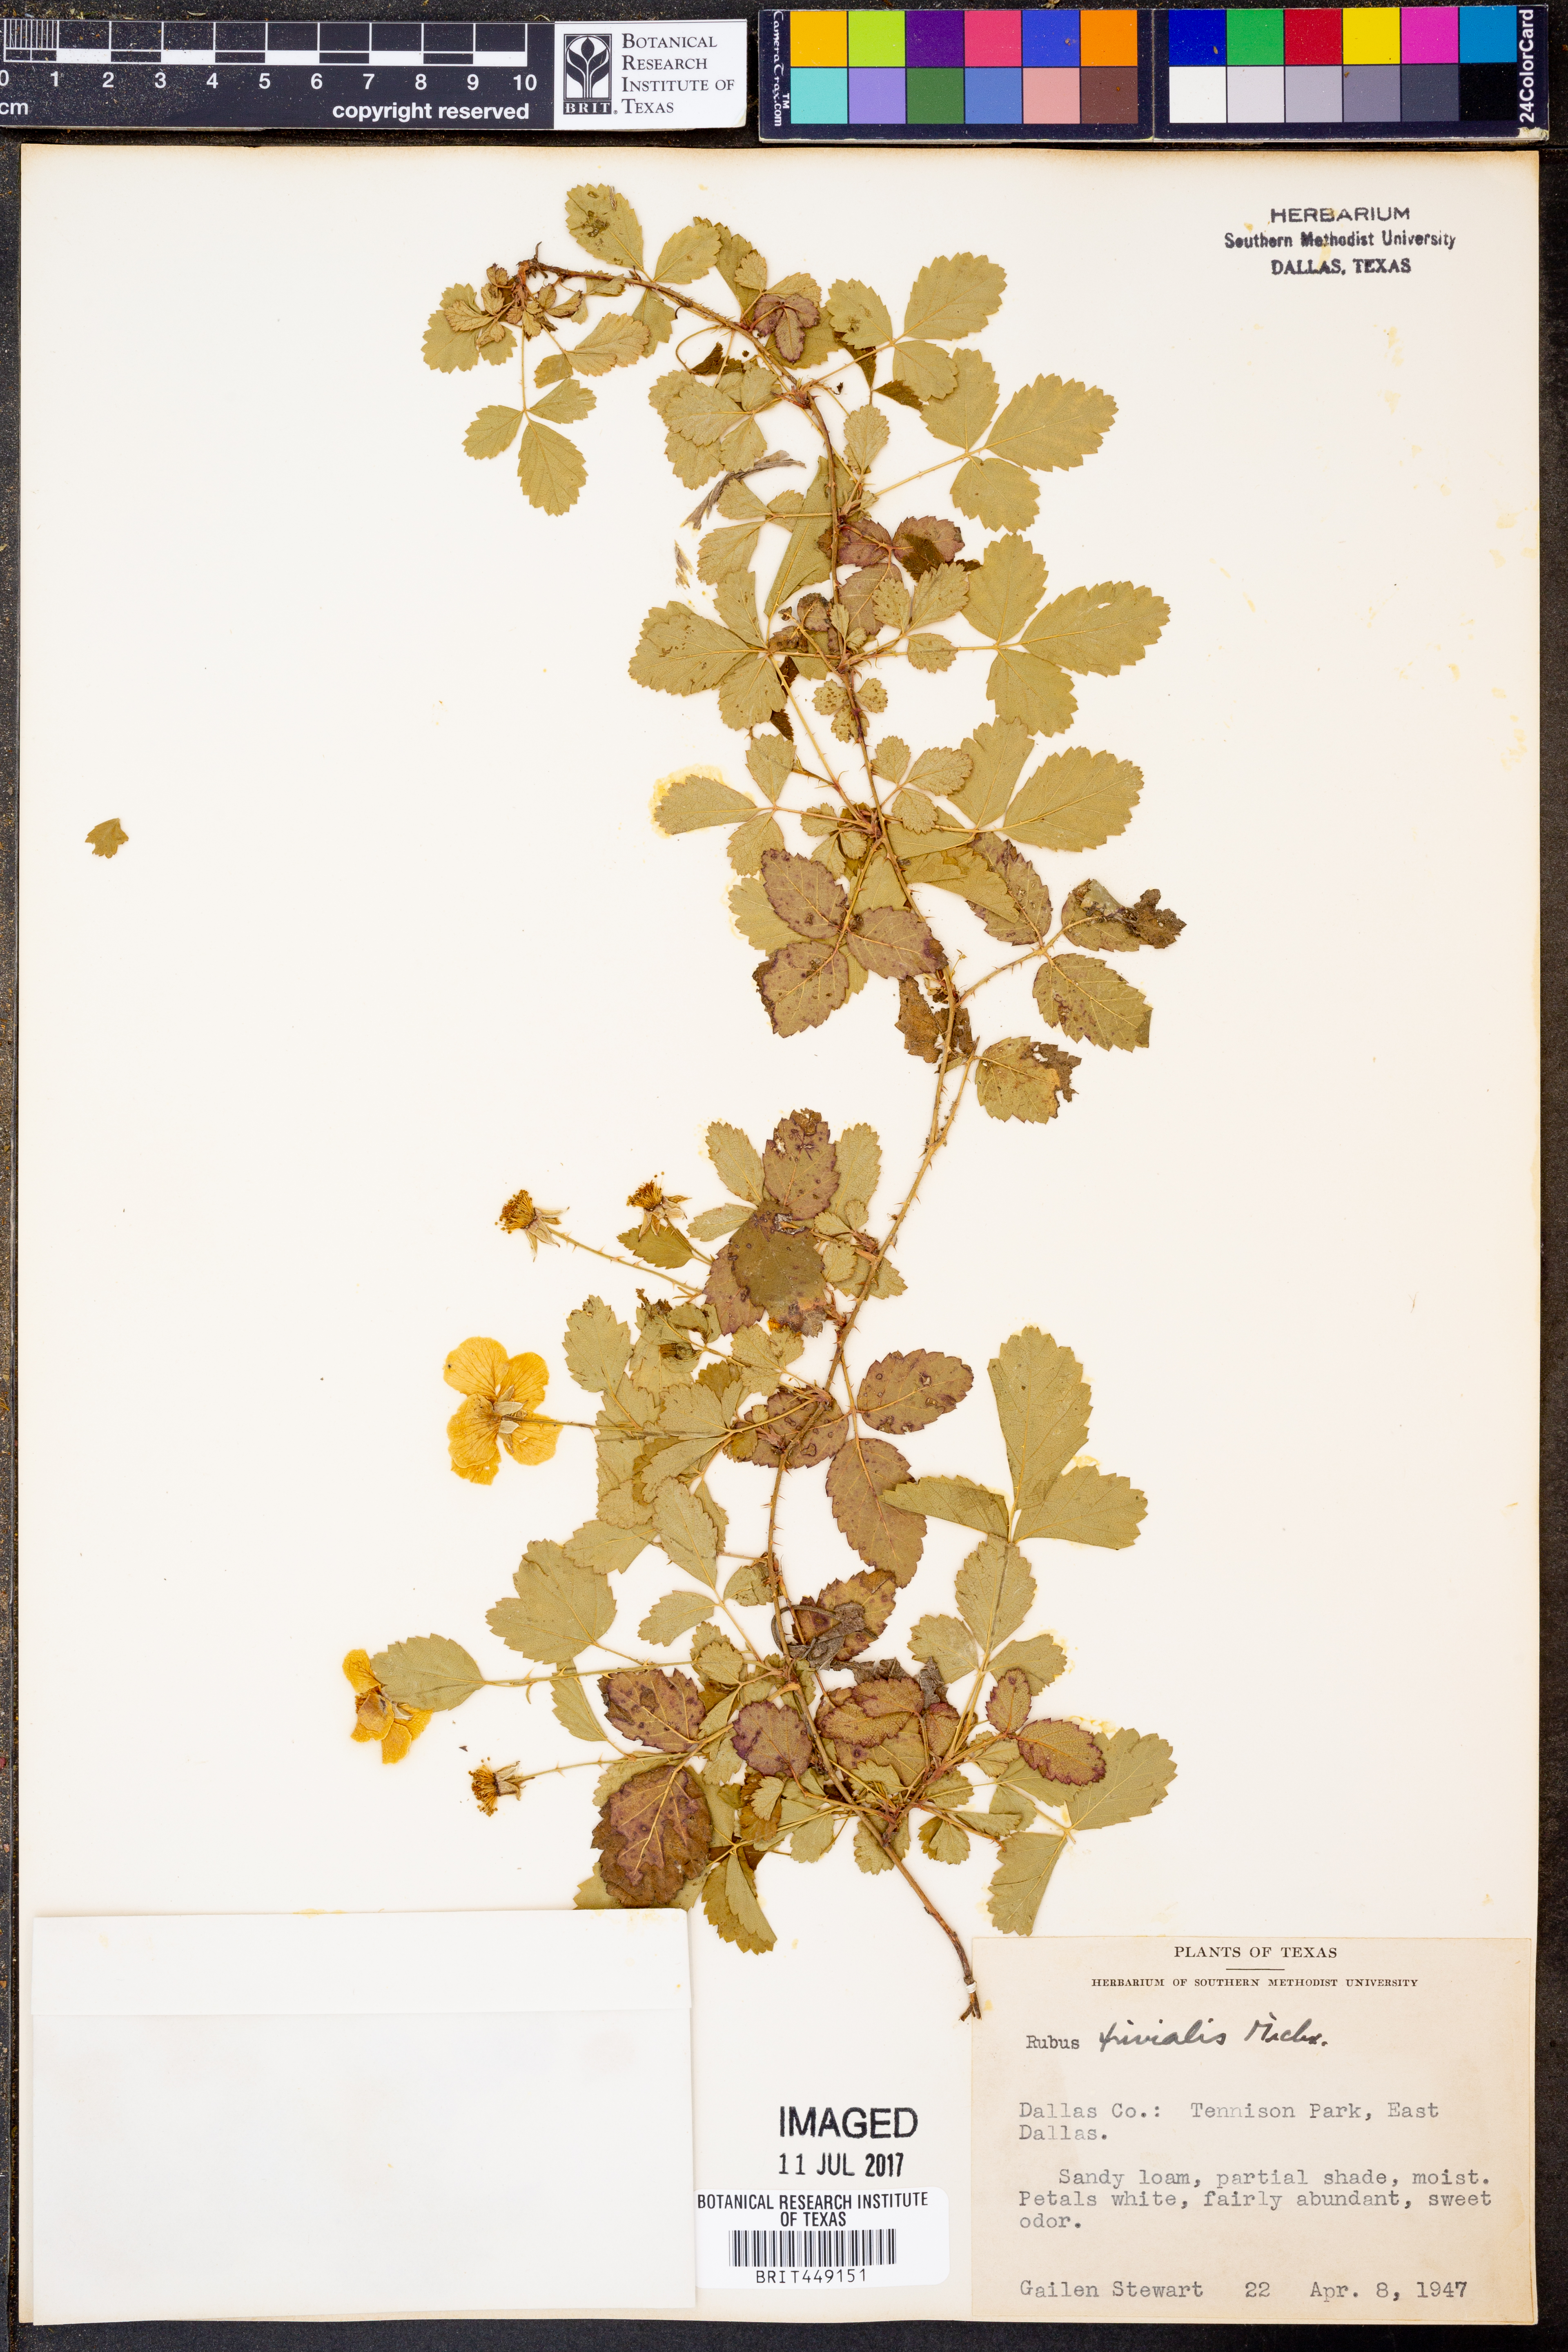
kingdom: Plantae
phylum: Tracheophyta
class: Magnoliopsida
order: Rosales
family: Rosaceae
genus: Rubus
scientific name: Rubus trivialis
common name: Southern dewberry
